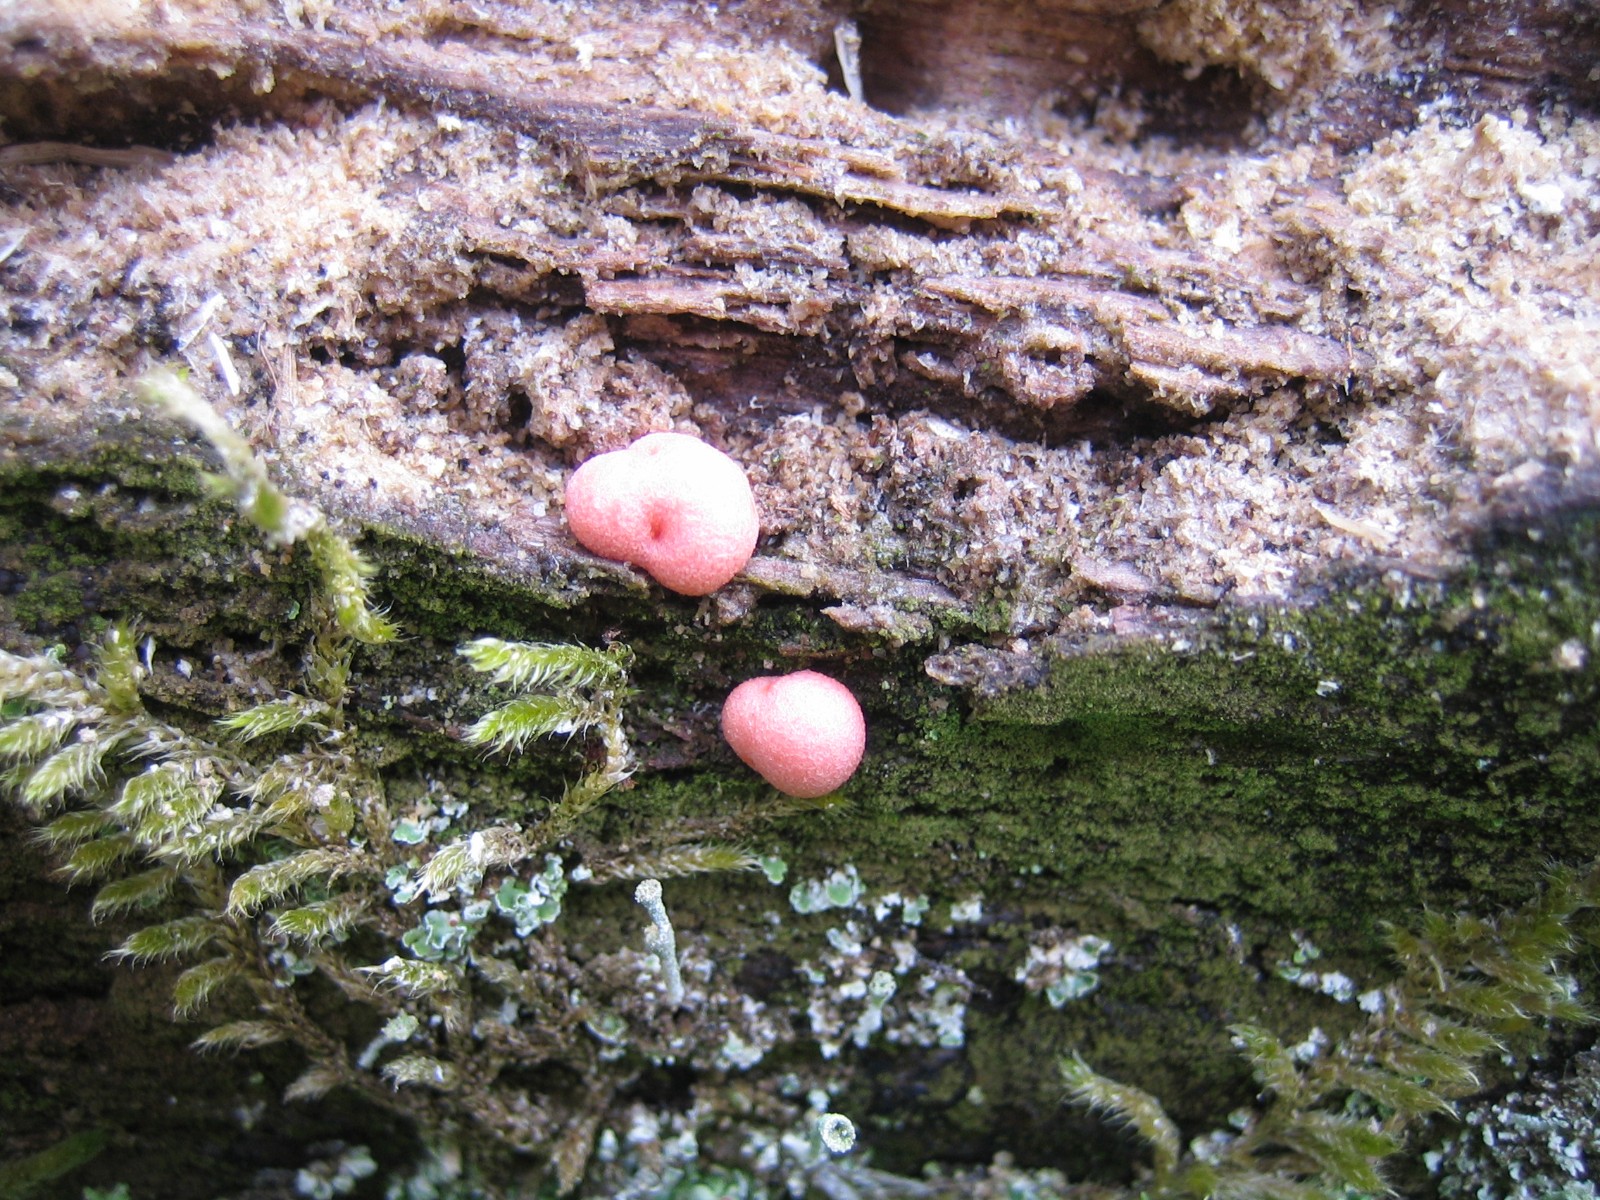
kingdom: Protozoa
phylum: Mycetozoa
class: Myxomycetes
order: Cribrariales
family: Tubiferaceae
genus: Lycogala
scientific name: Lycogala epidendrum
